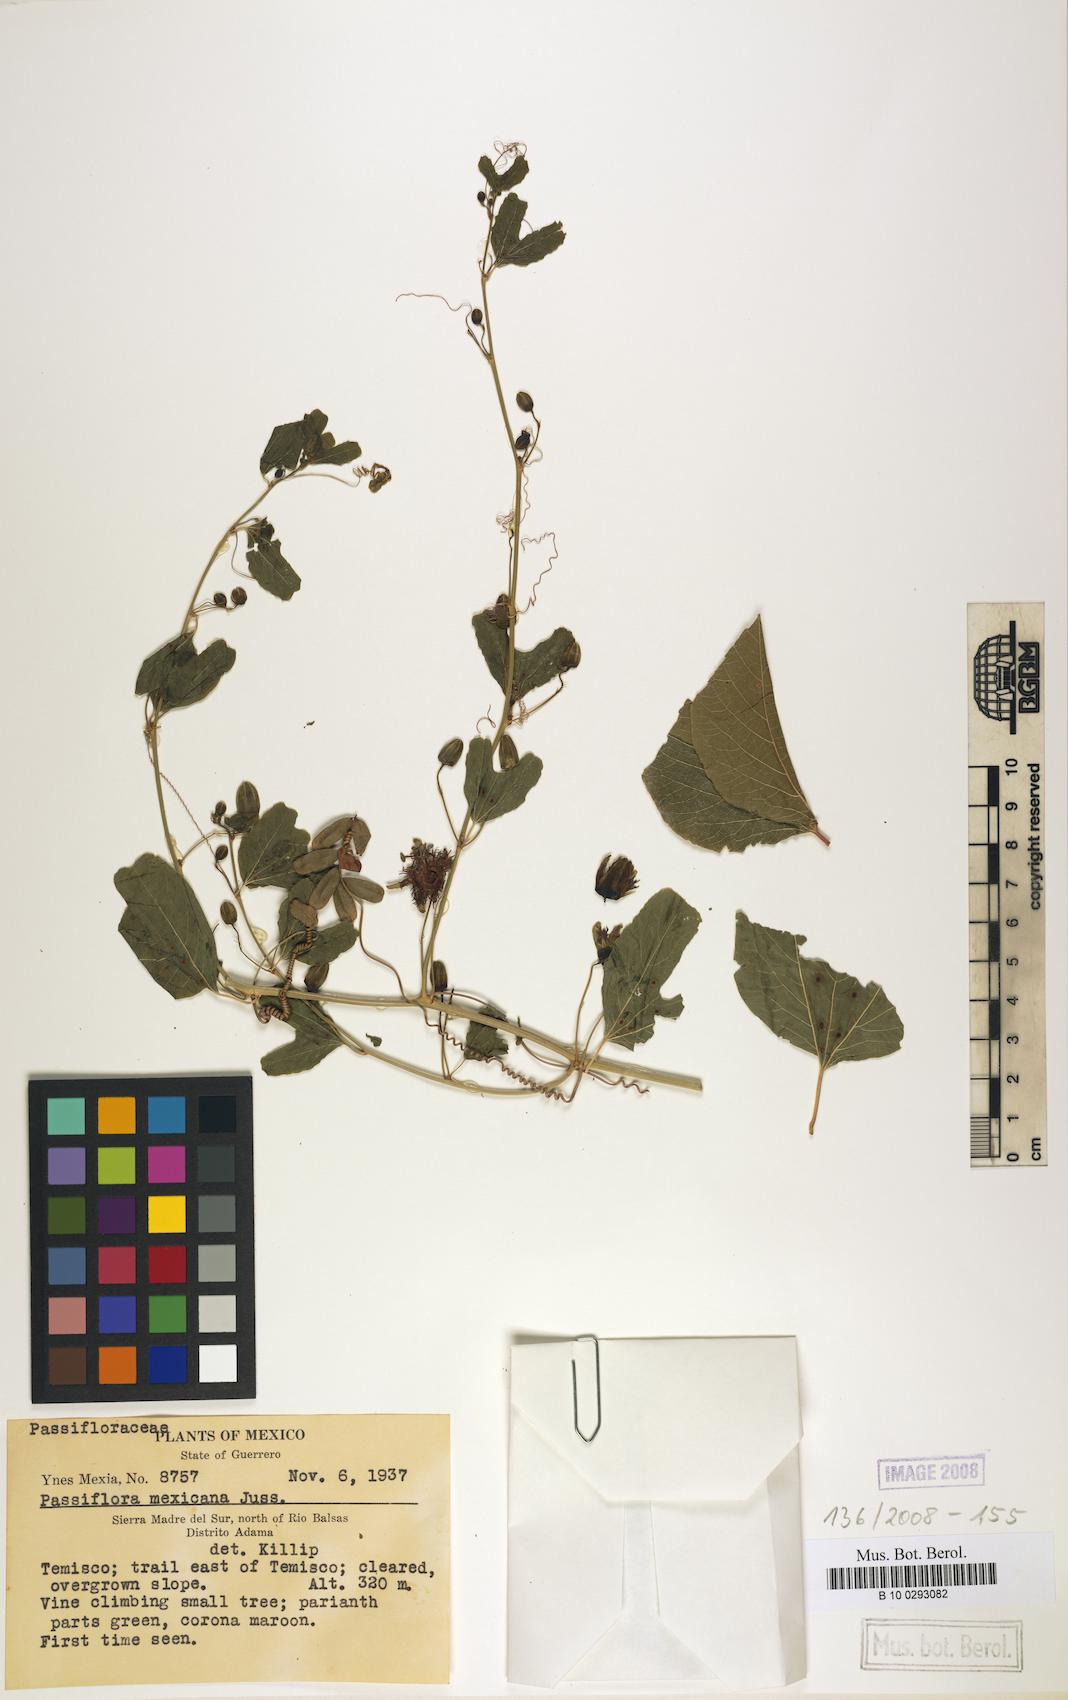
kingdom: Plantae
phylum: Tracheophyta
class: Magnoliopsida
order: Malpighiales
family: Passifloraceae
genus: Passiflora
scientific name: Passiflora mexicana
